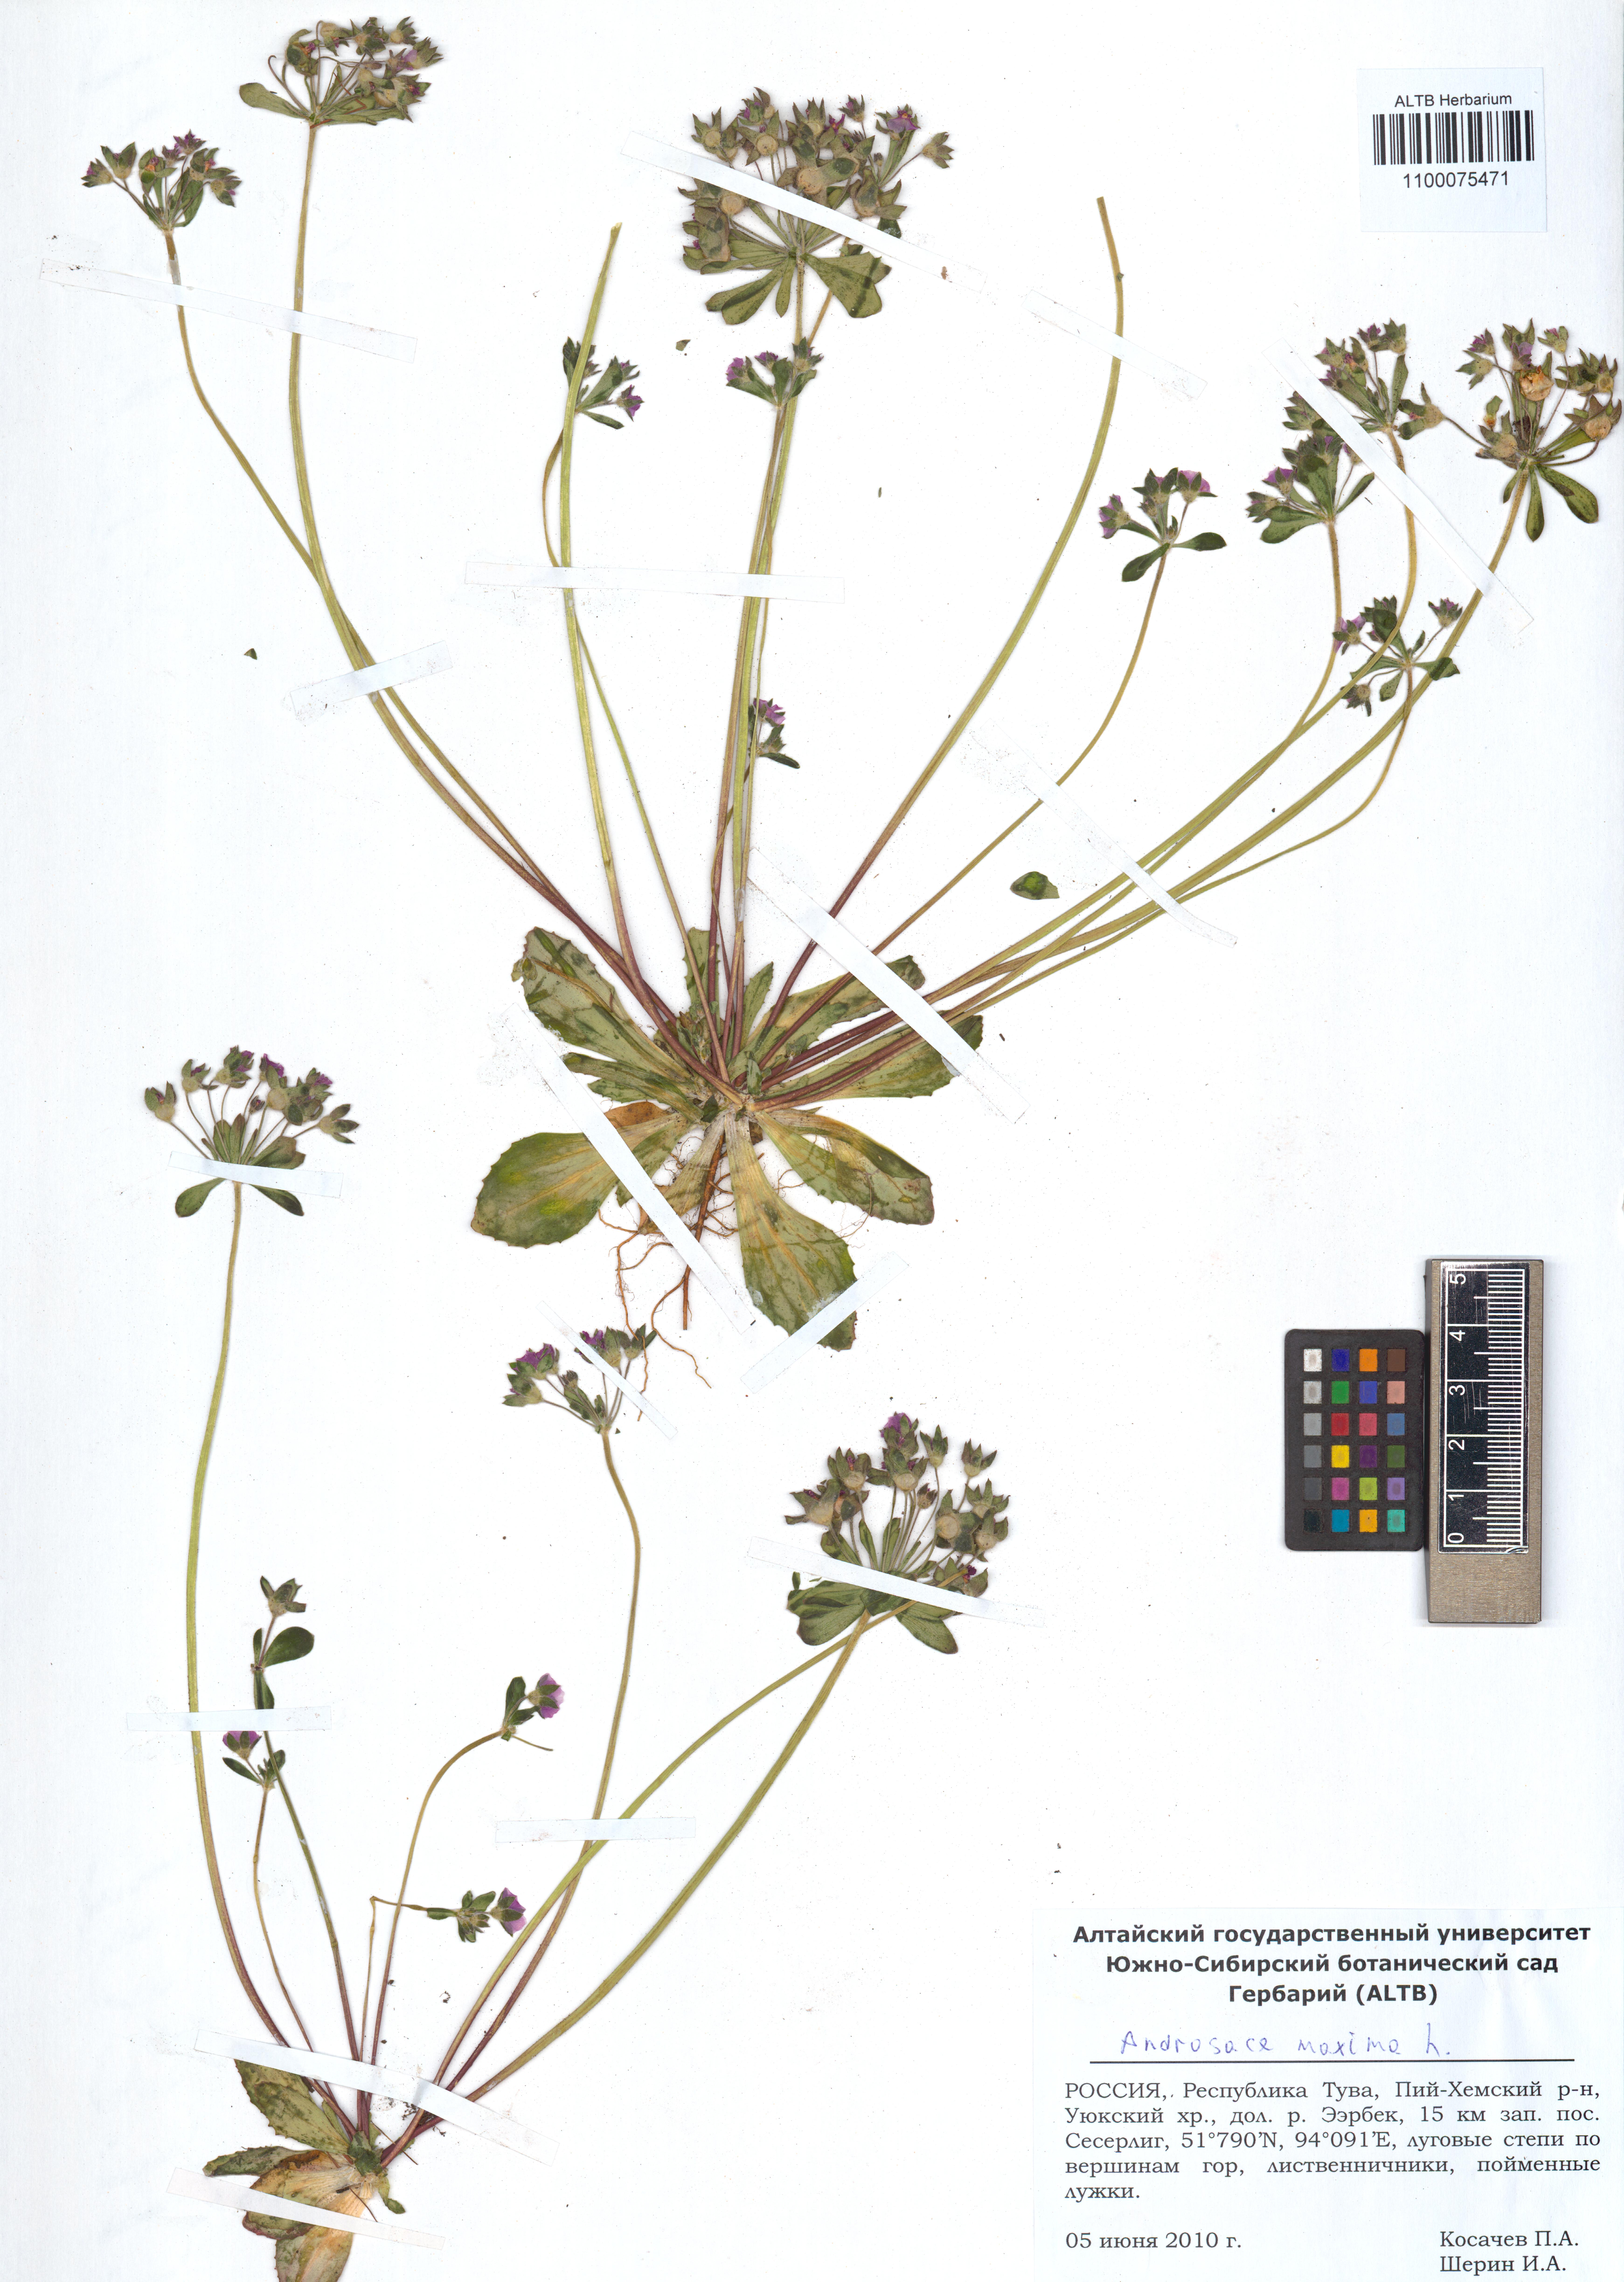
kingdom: Plantae
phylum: Tracheophyta
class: Magnoliopsida
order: Ericales
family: Primulaceae
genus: Androsace
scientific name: Androsace maxima
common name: Annual androsace
